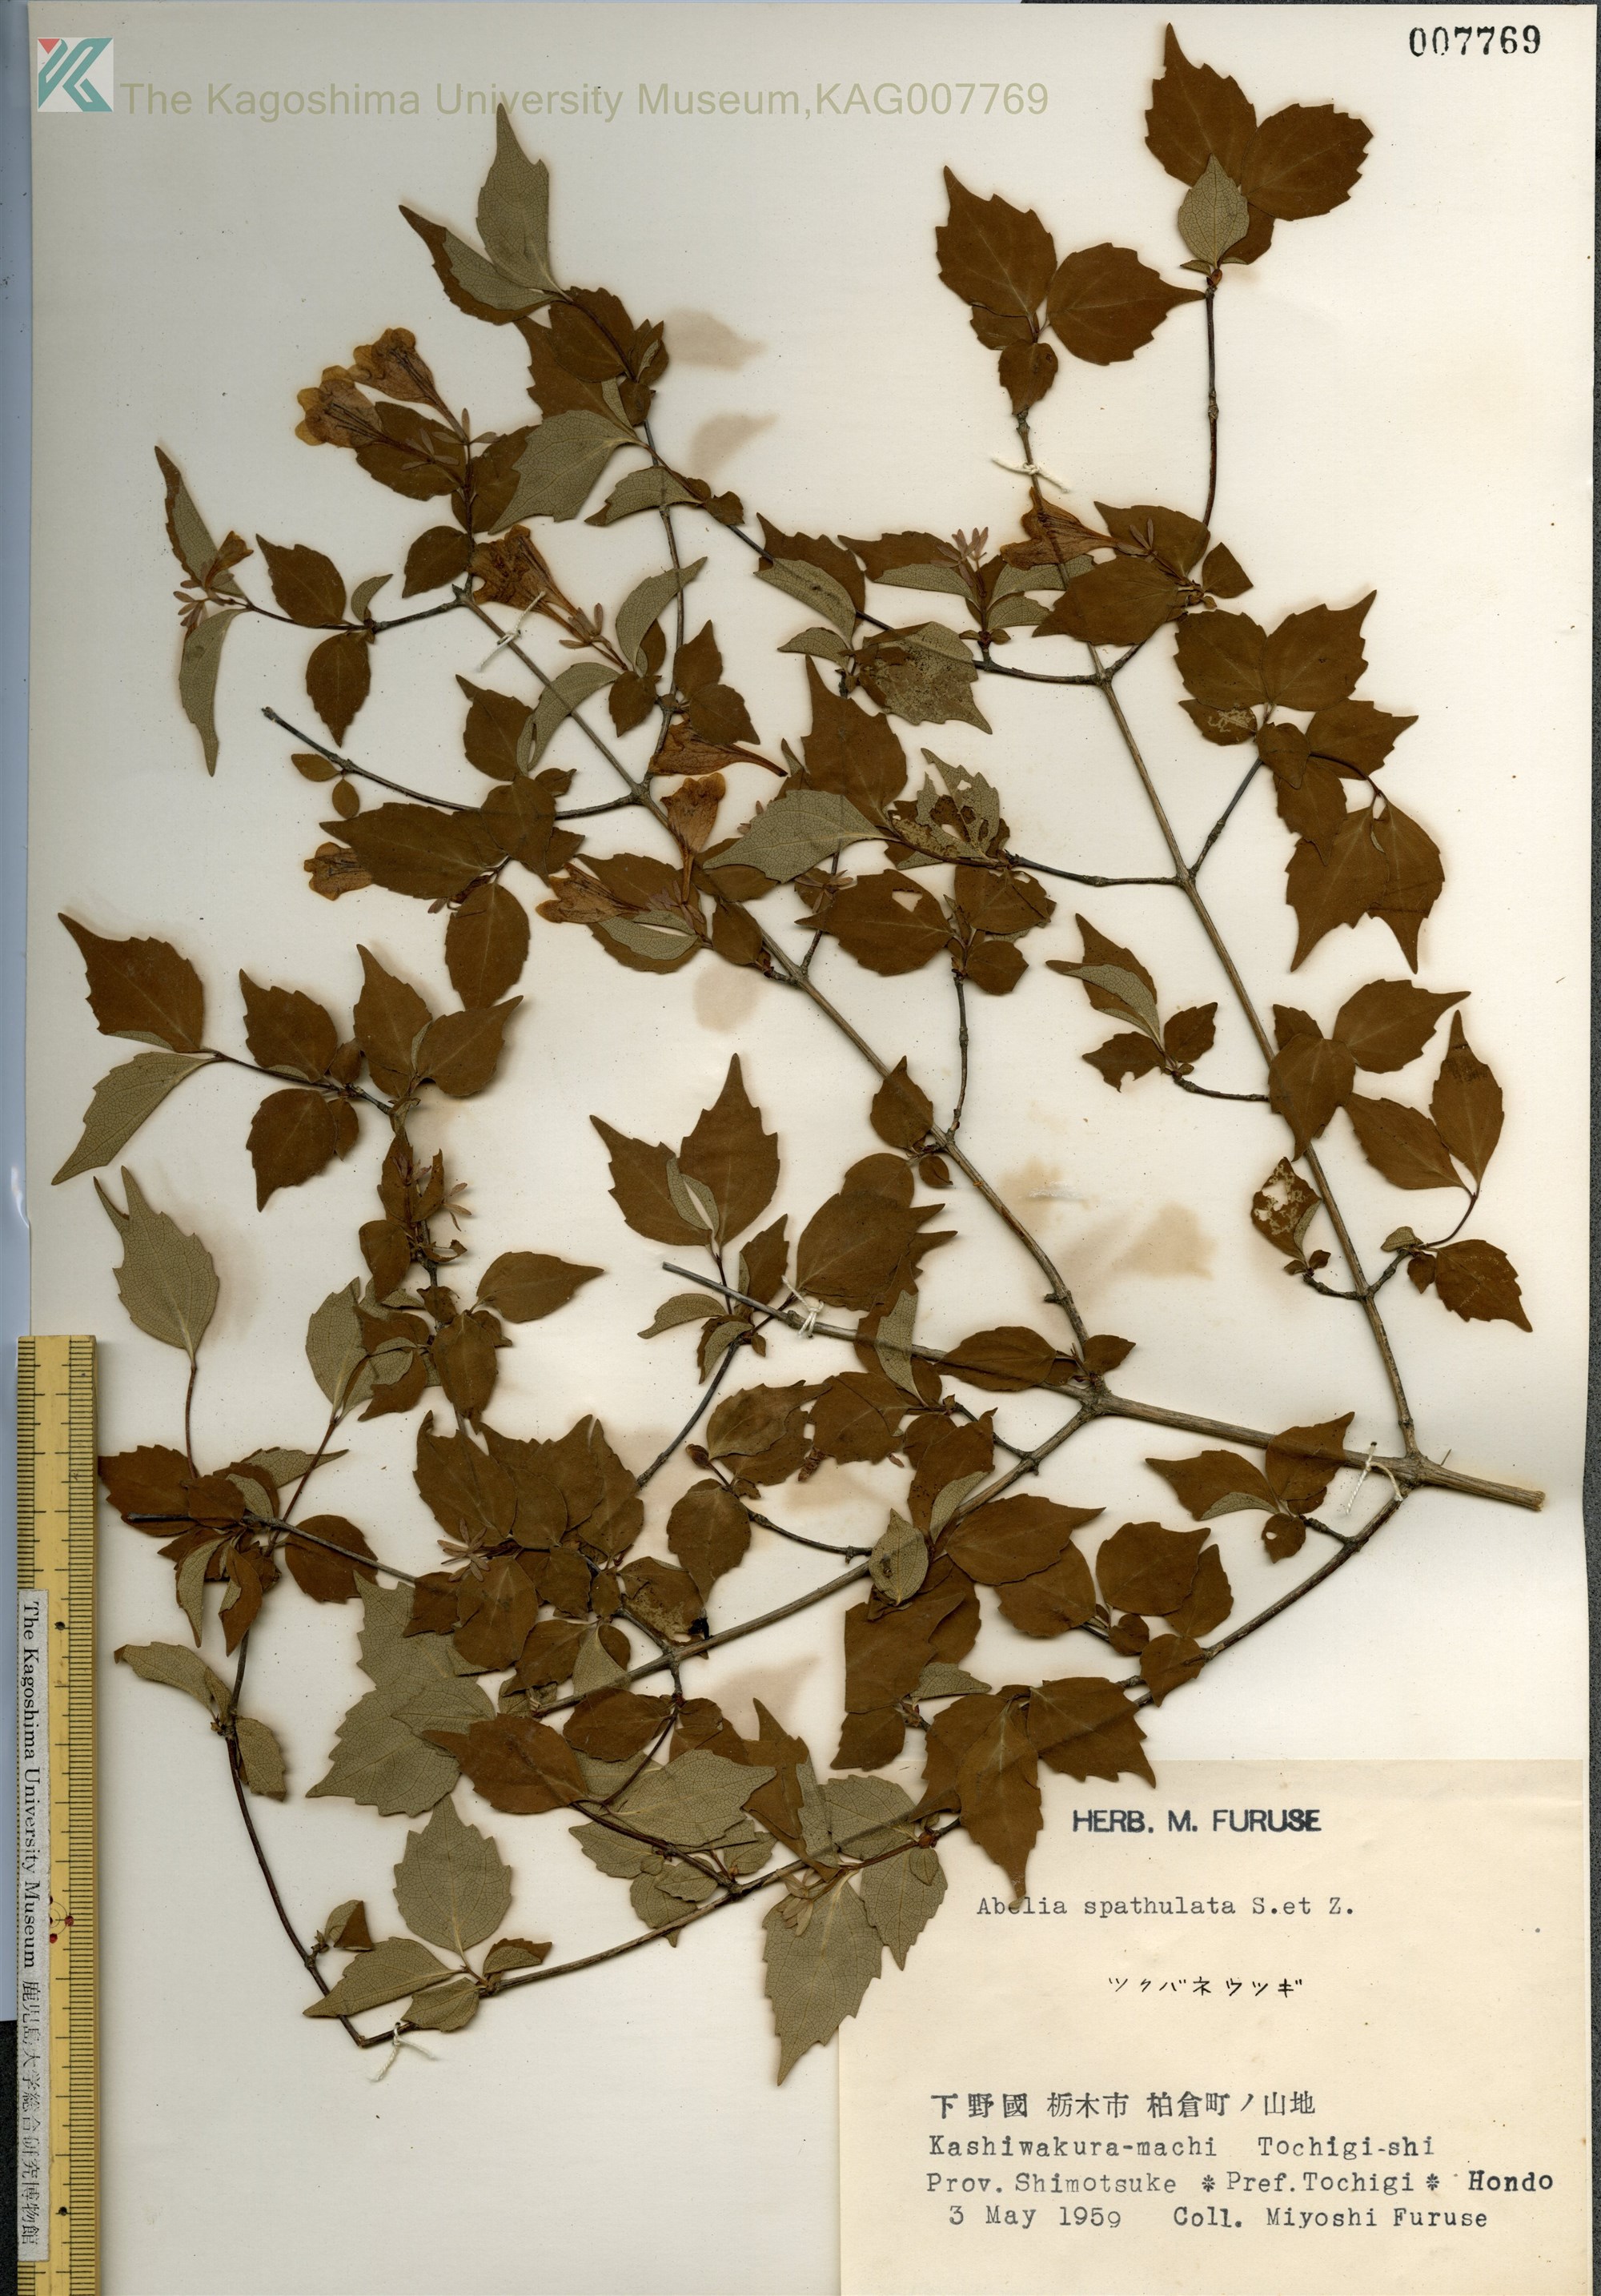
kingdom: Plantae
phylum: Tracheophyta
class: Magnoliopsida
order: Dipsacales
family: Caprifoliaceae
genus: Diabelia
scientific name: Diabelia spathulata
